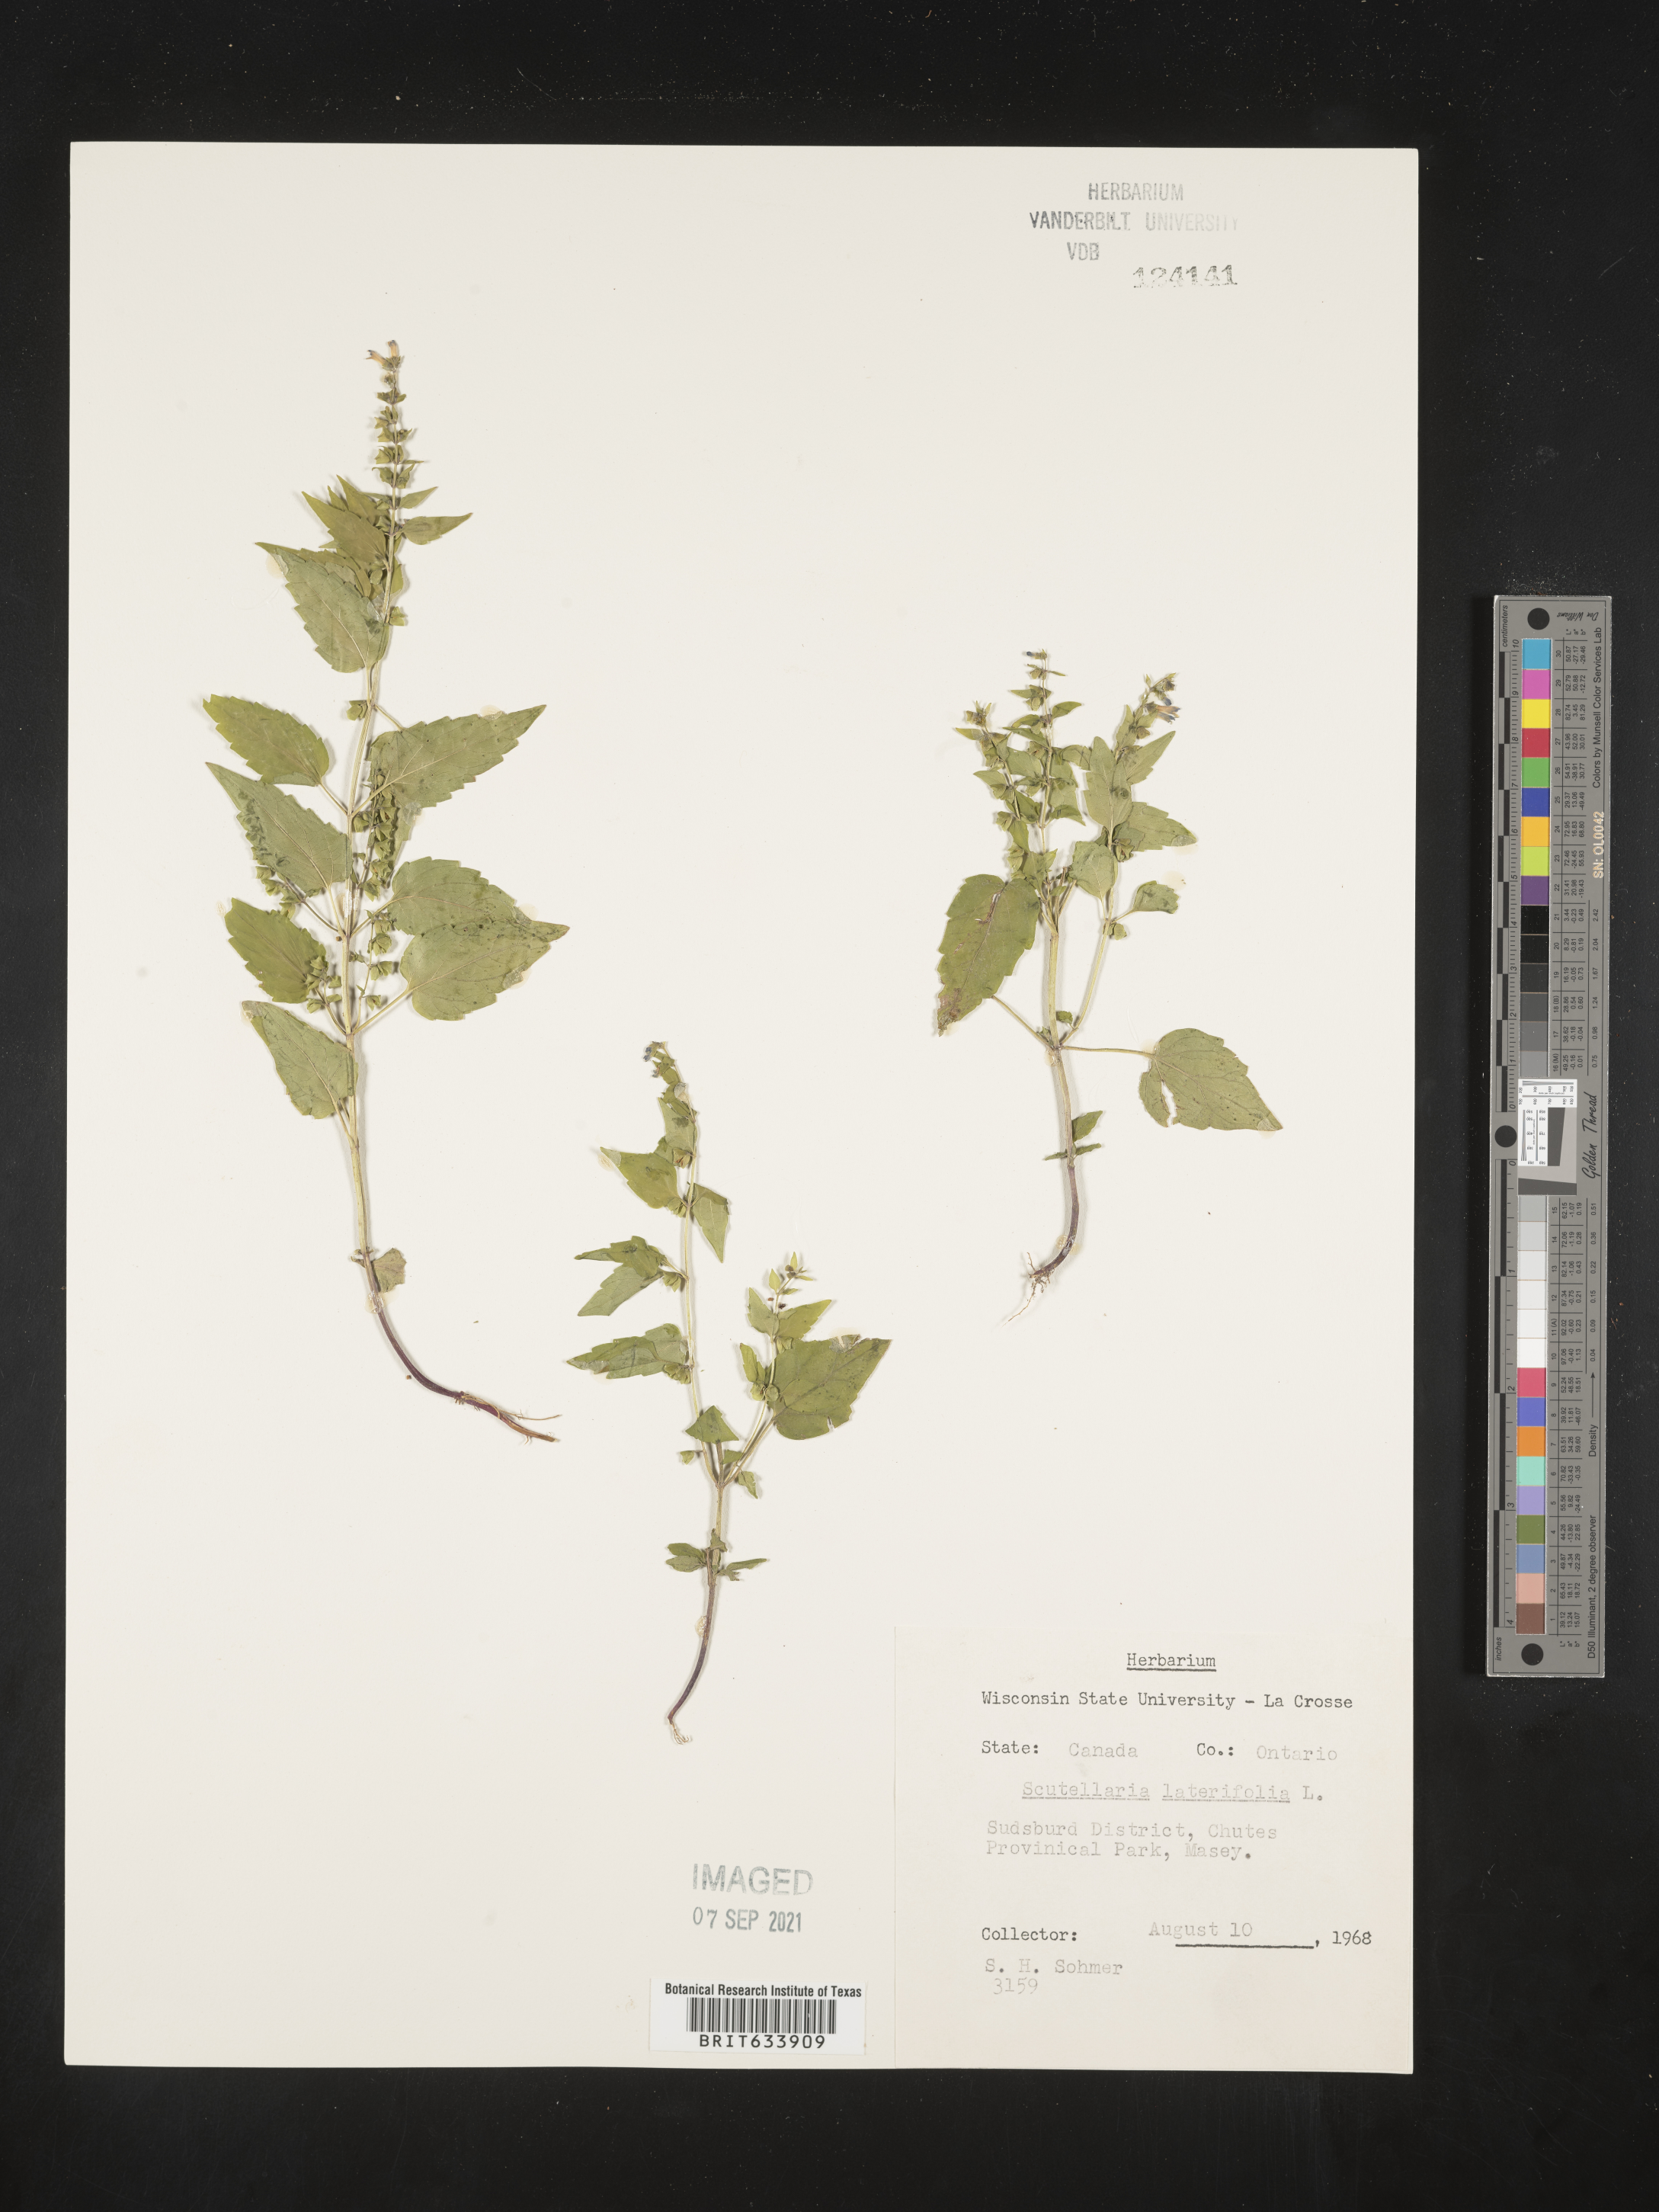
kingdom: Plantae
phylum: Tracheophyta
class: Magnoliopsida
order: Lamiales
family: Lamiaceae
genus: Scutellaria
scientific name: Scutellaria
